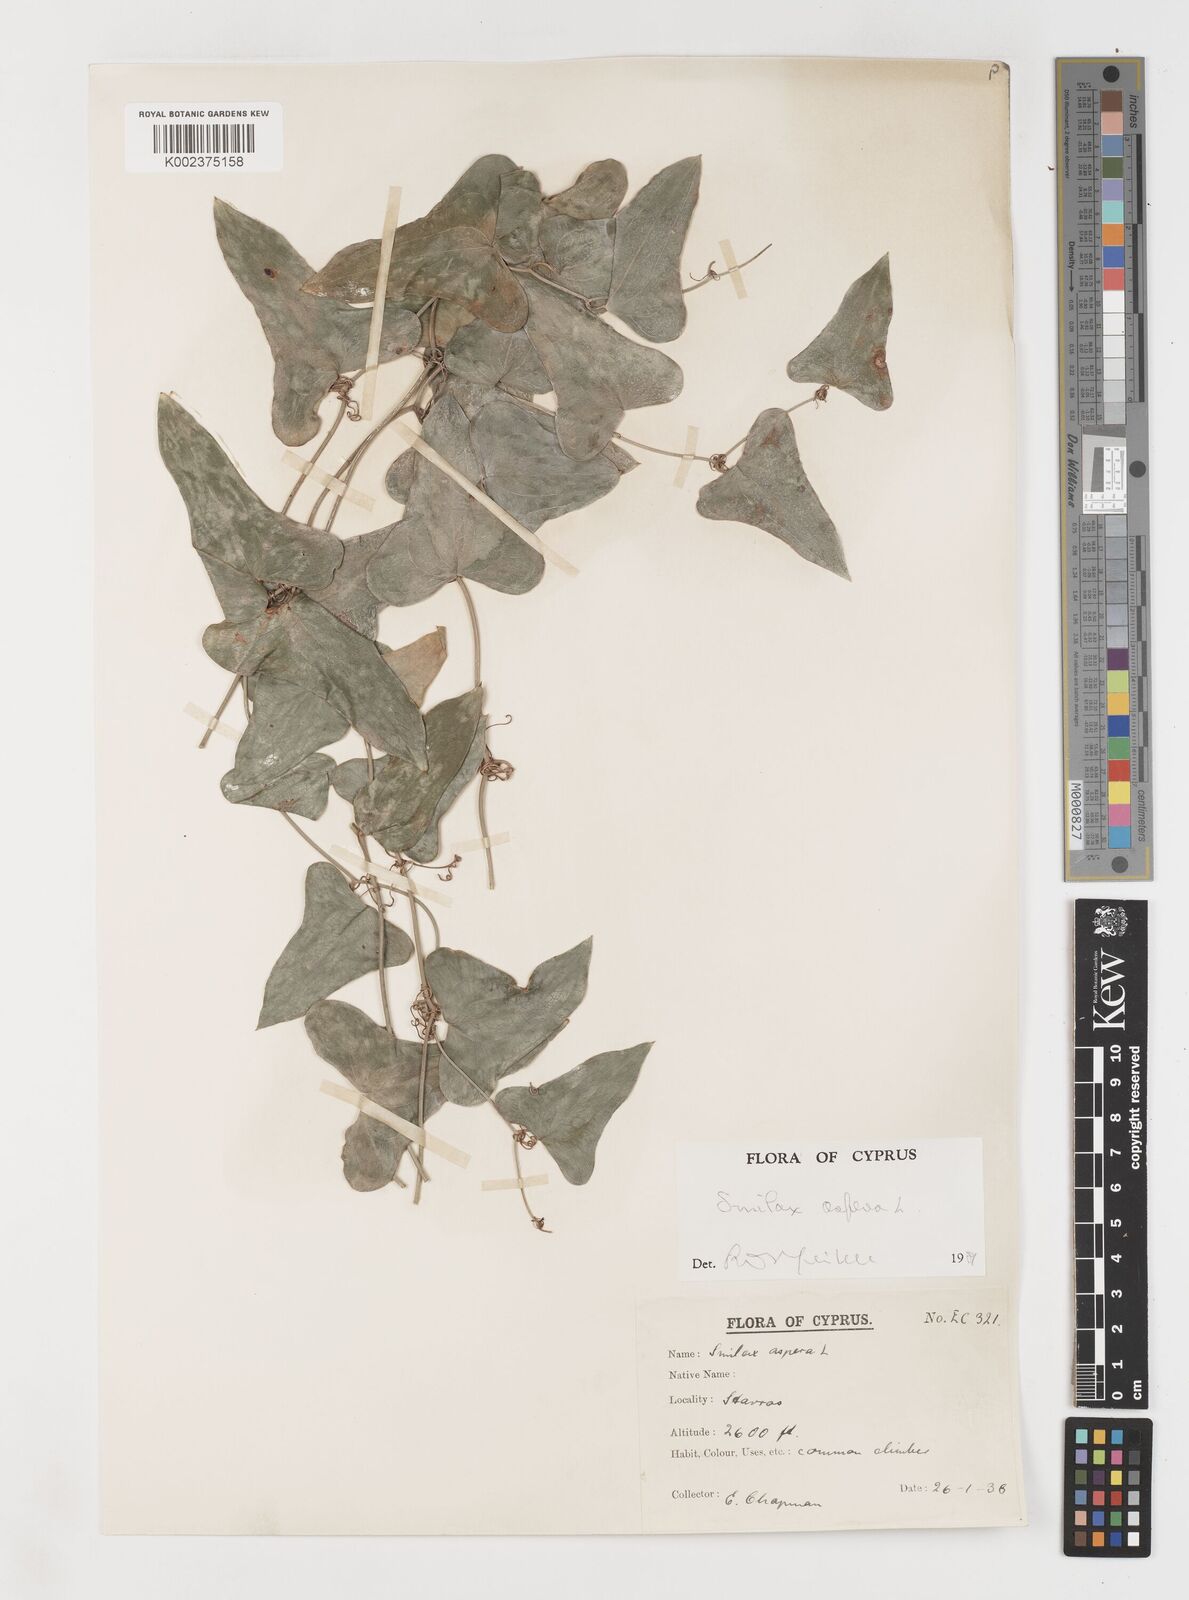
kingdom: Plantae
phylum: Tracheophyta
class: Liliopsida
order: Liliales
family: Smilacaceae
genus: Smilax
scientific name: Smilax aspera
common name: Common smilax
